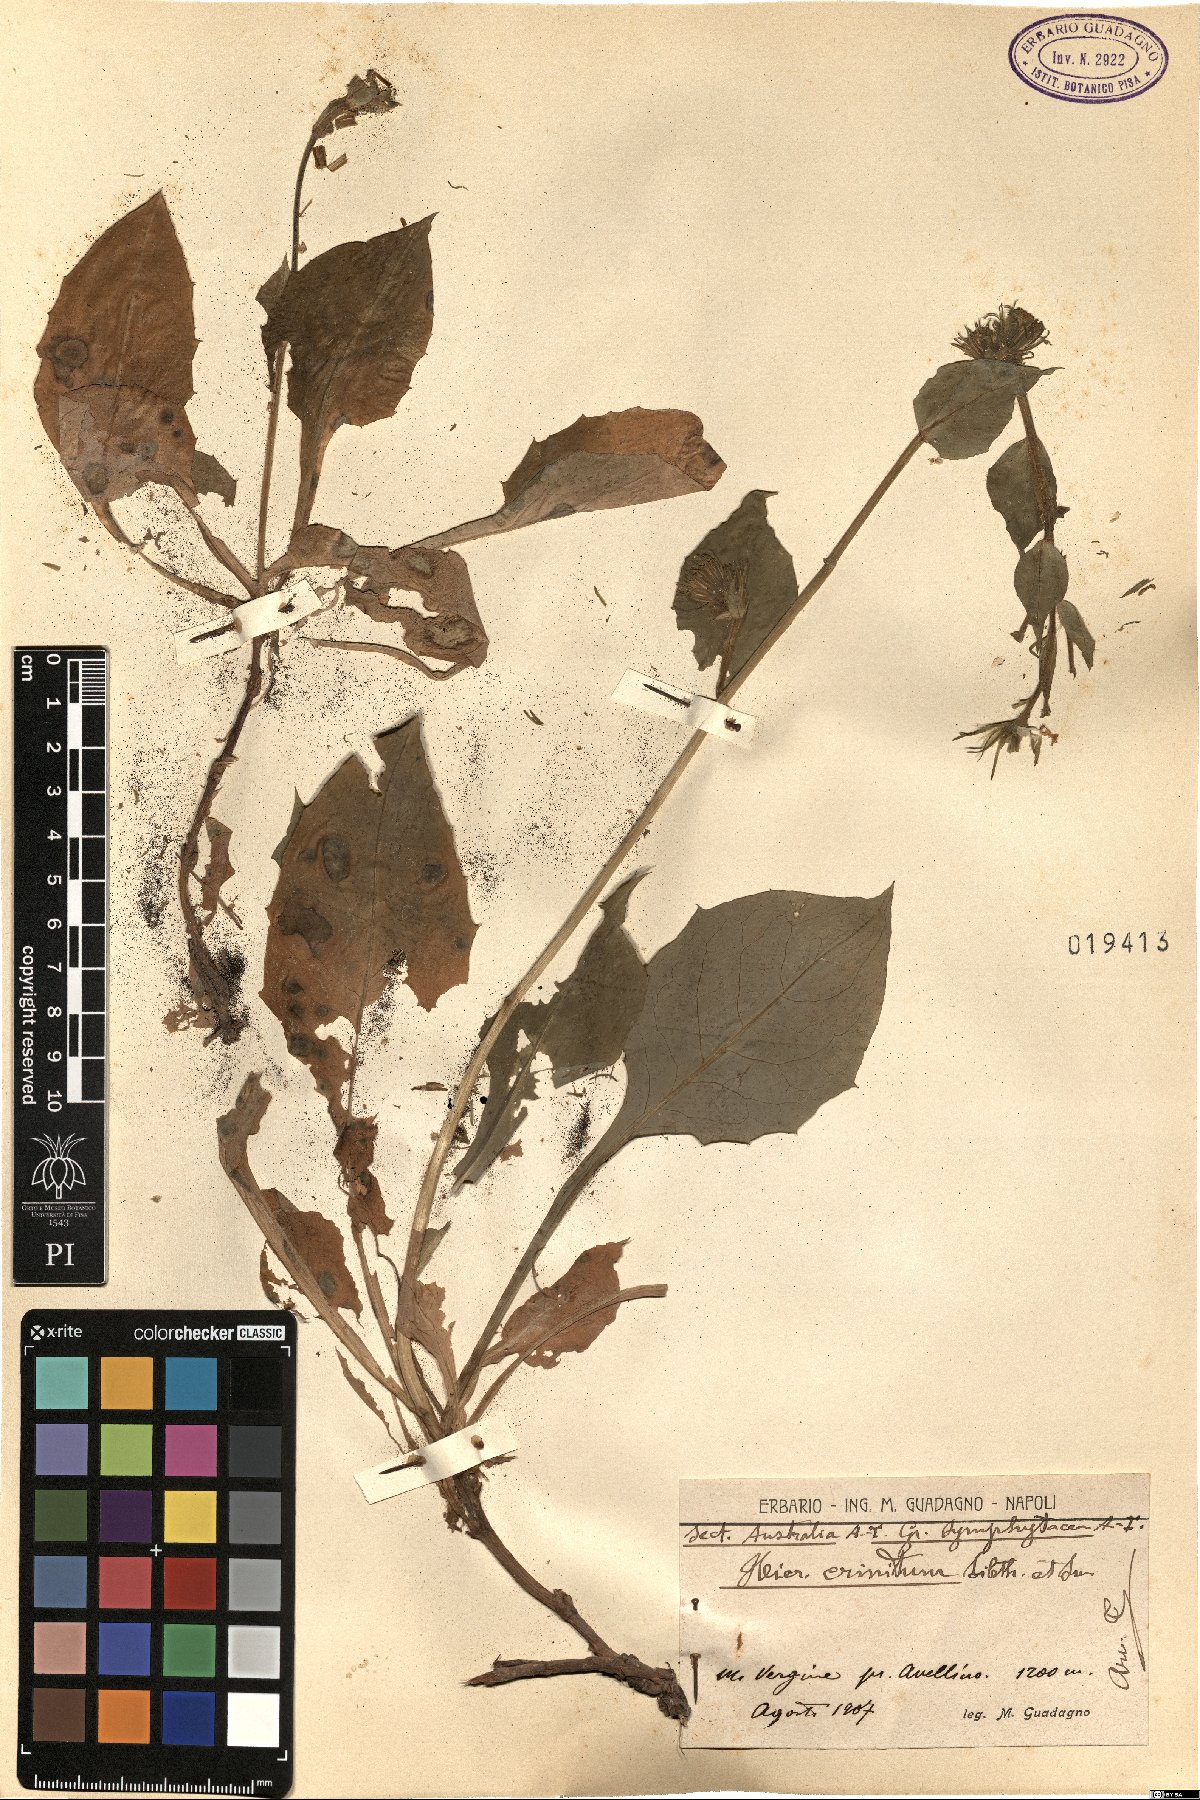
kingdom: Plantae
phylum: Tracheophyta
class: Magnoliopsida
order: Asterales
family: Asteraceae
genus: Hieracium
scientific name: Hieracium racemosum
